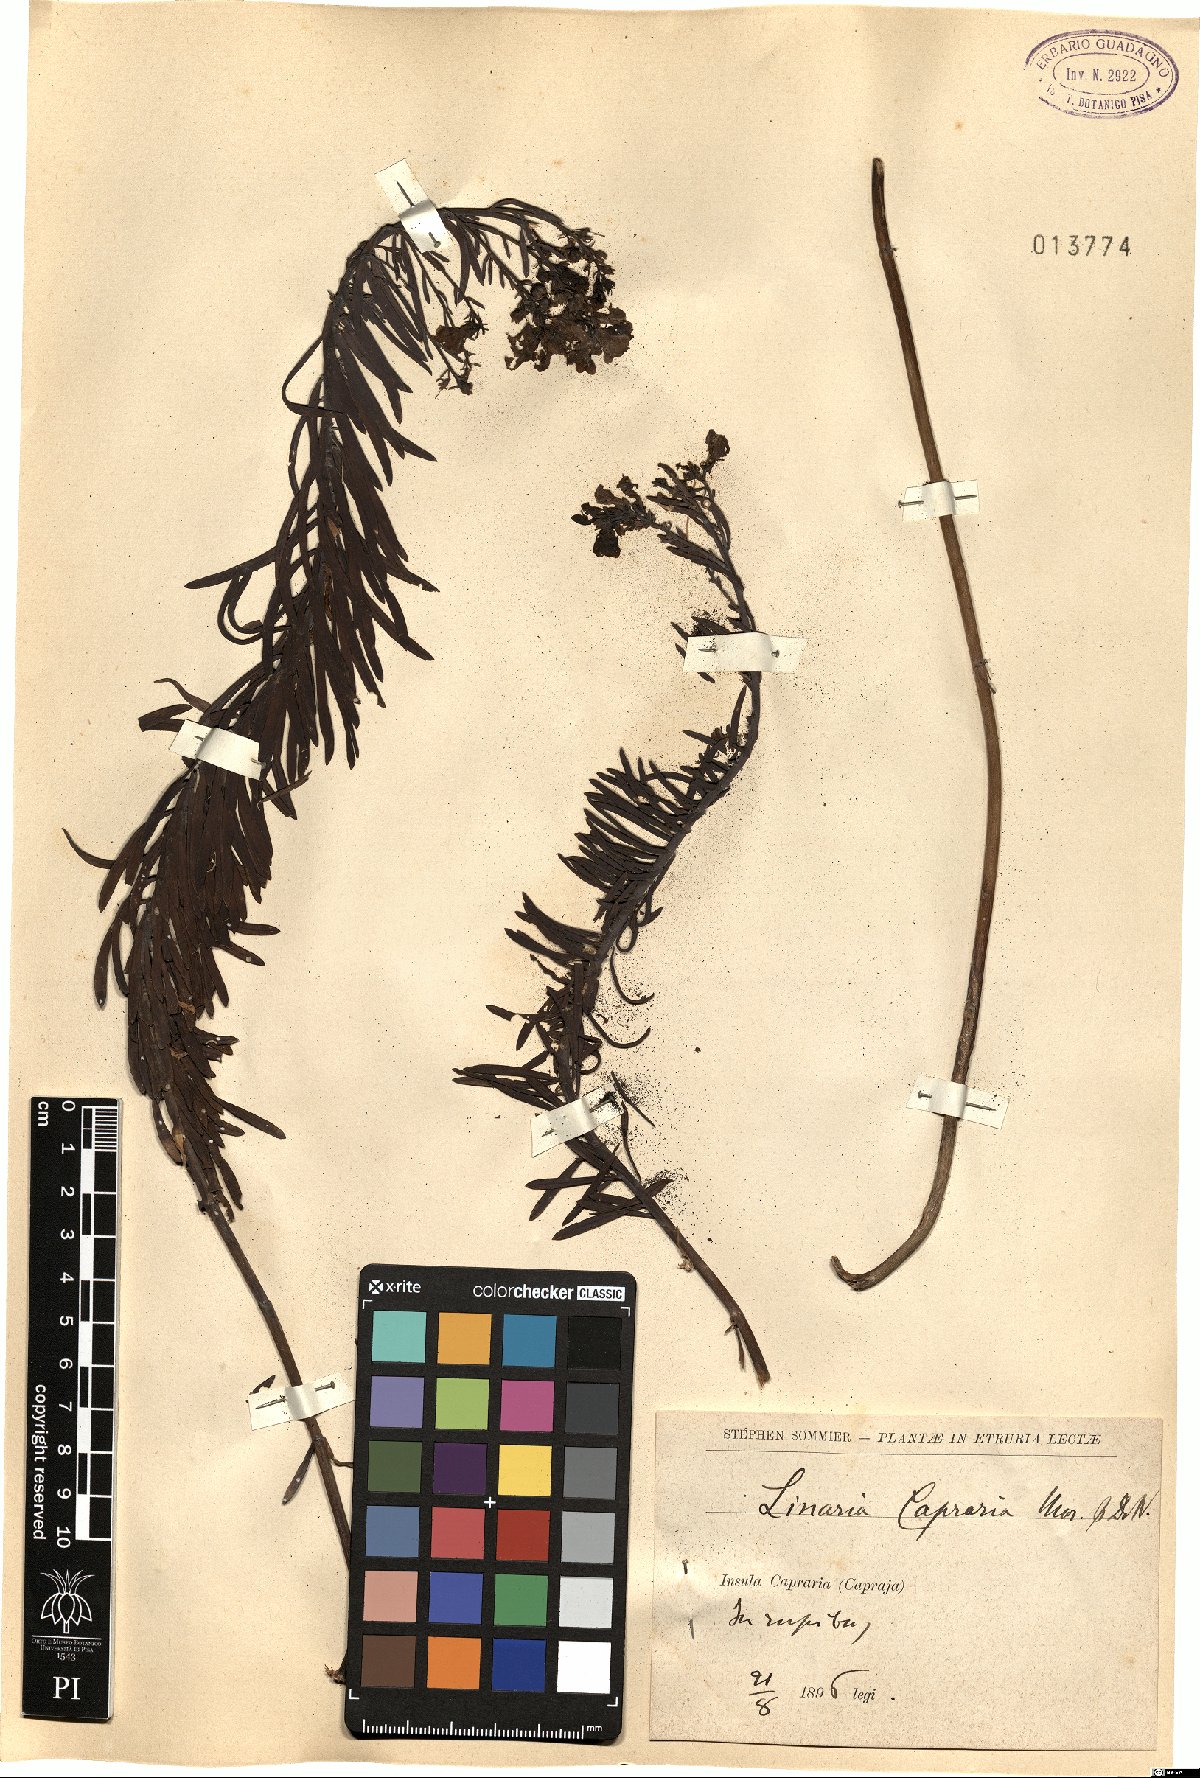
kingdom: Plantae
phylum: Tracheophyta
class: Magnoliopsida
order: Lamiales
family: Plantaginaceae
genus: Linaria
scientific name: Linaria capraria
